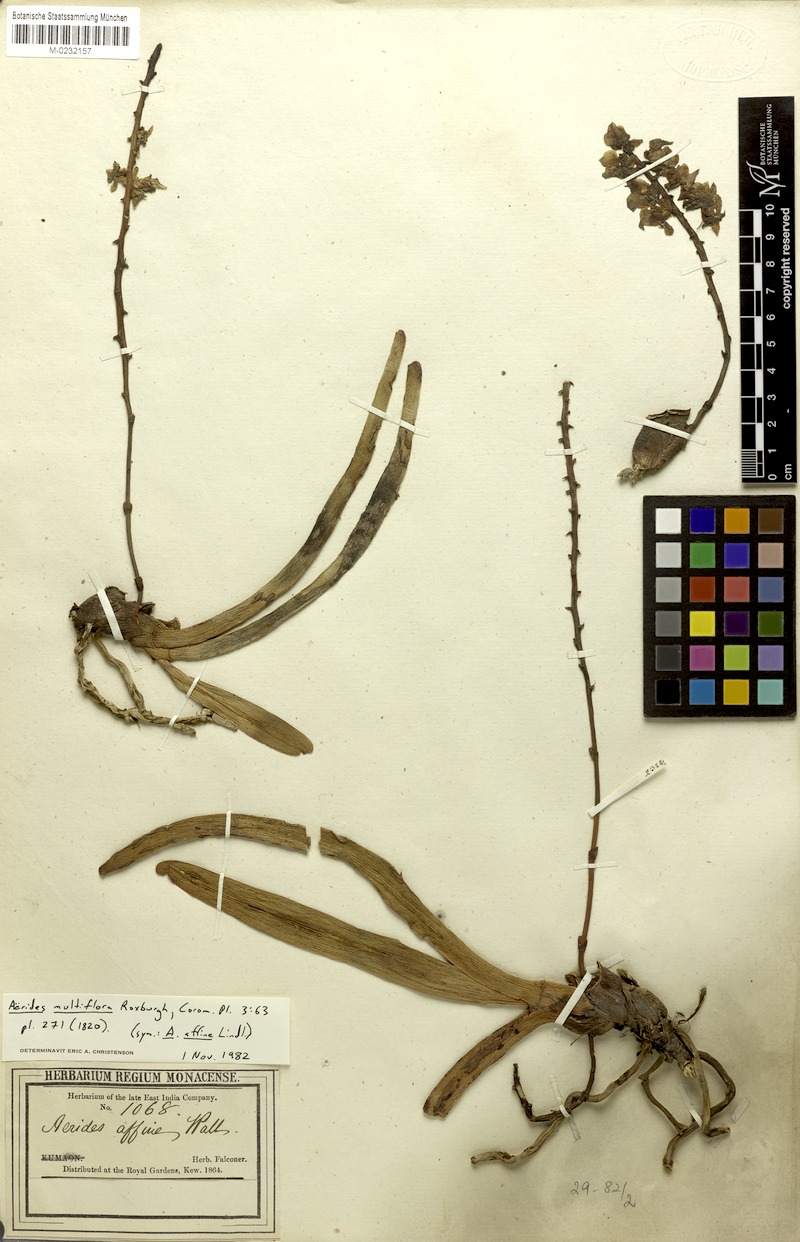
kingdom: Plantae
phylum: Tracheophyta
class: Liliopsida
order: Asparagales
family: Orchidaceae
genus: Aerides
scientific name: Aerides multiflora
